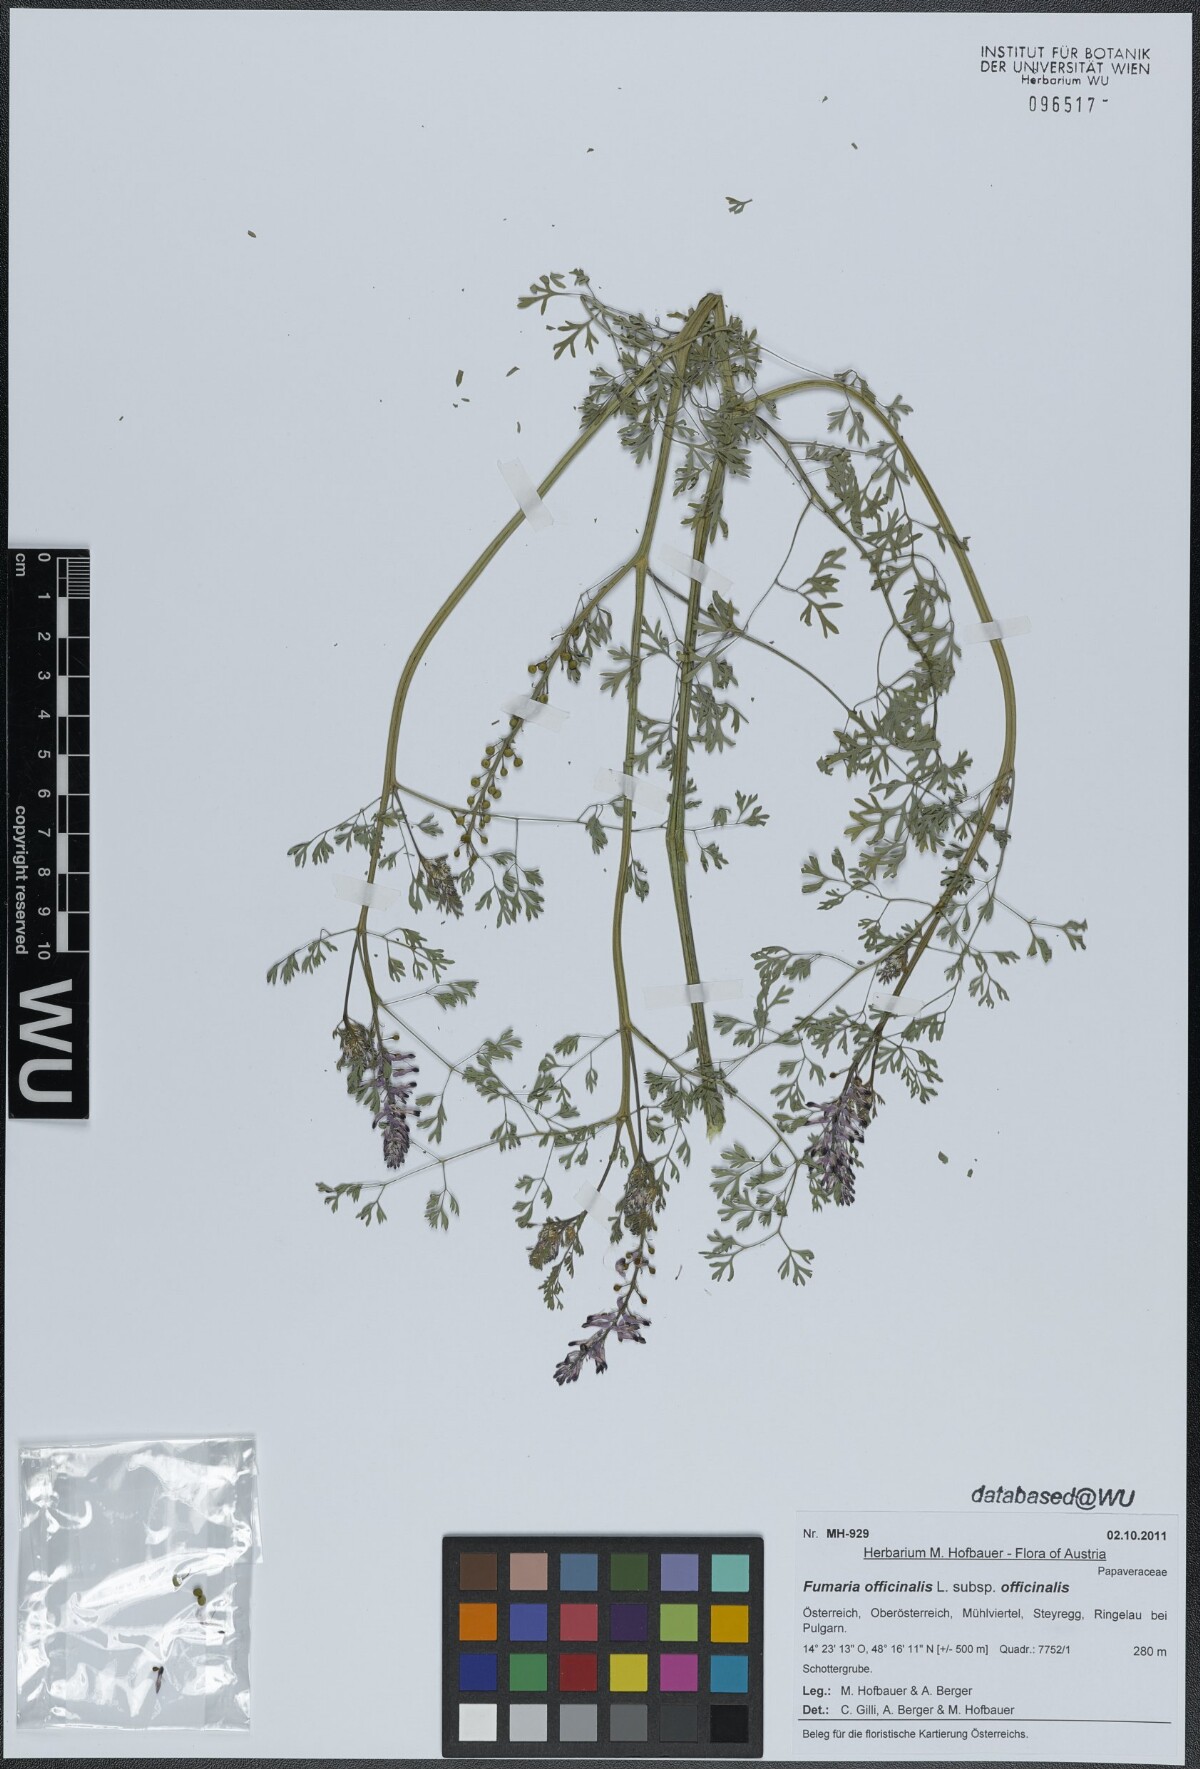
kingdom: Plantae
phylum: Tracheophyta
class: Magnoliopsida
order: Ranunculales
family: Papaveraceae
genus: Fumaria
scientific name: Fumaria officinalis
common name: Common fumitory
